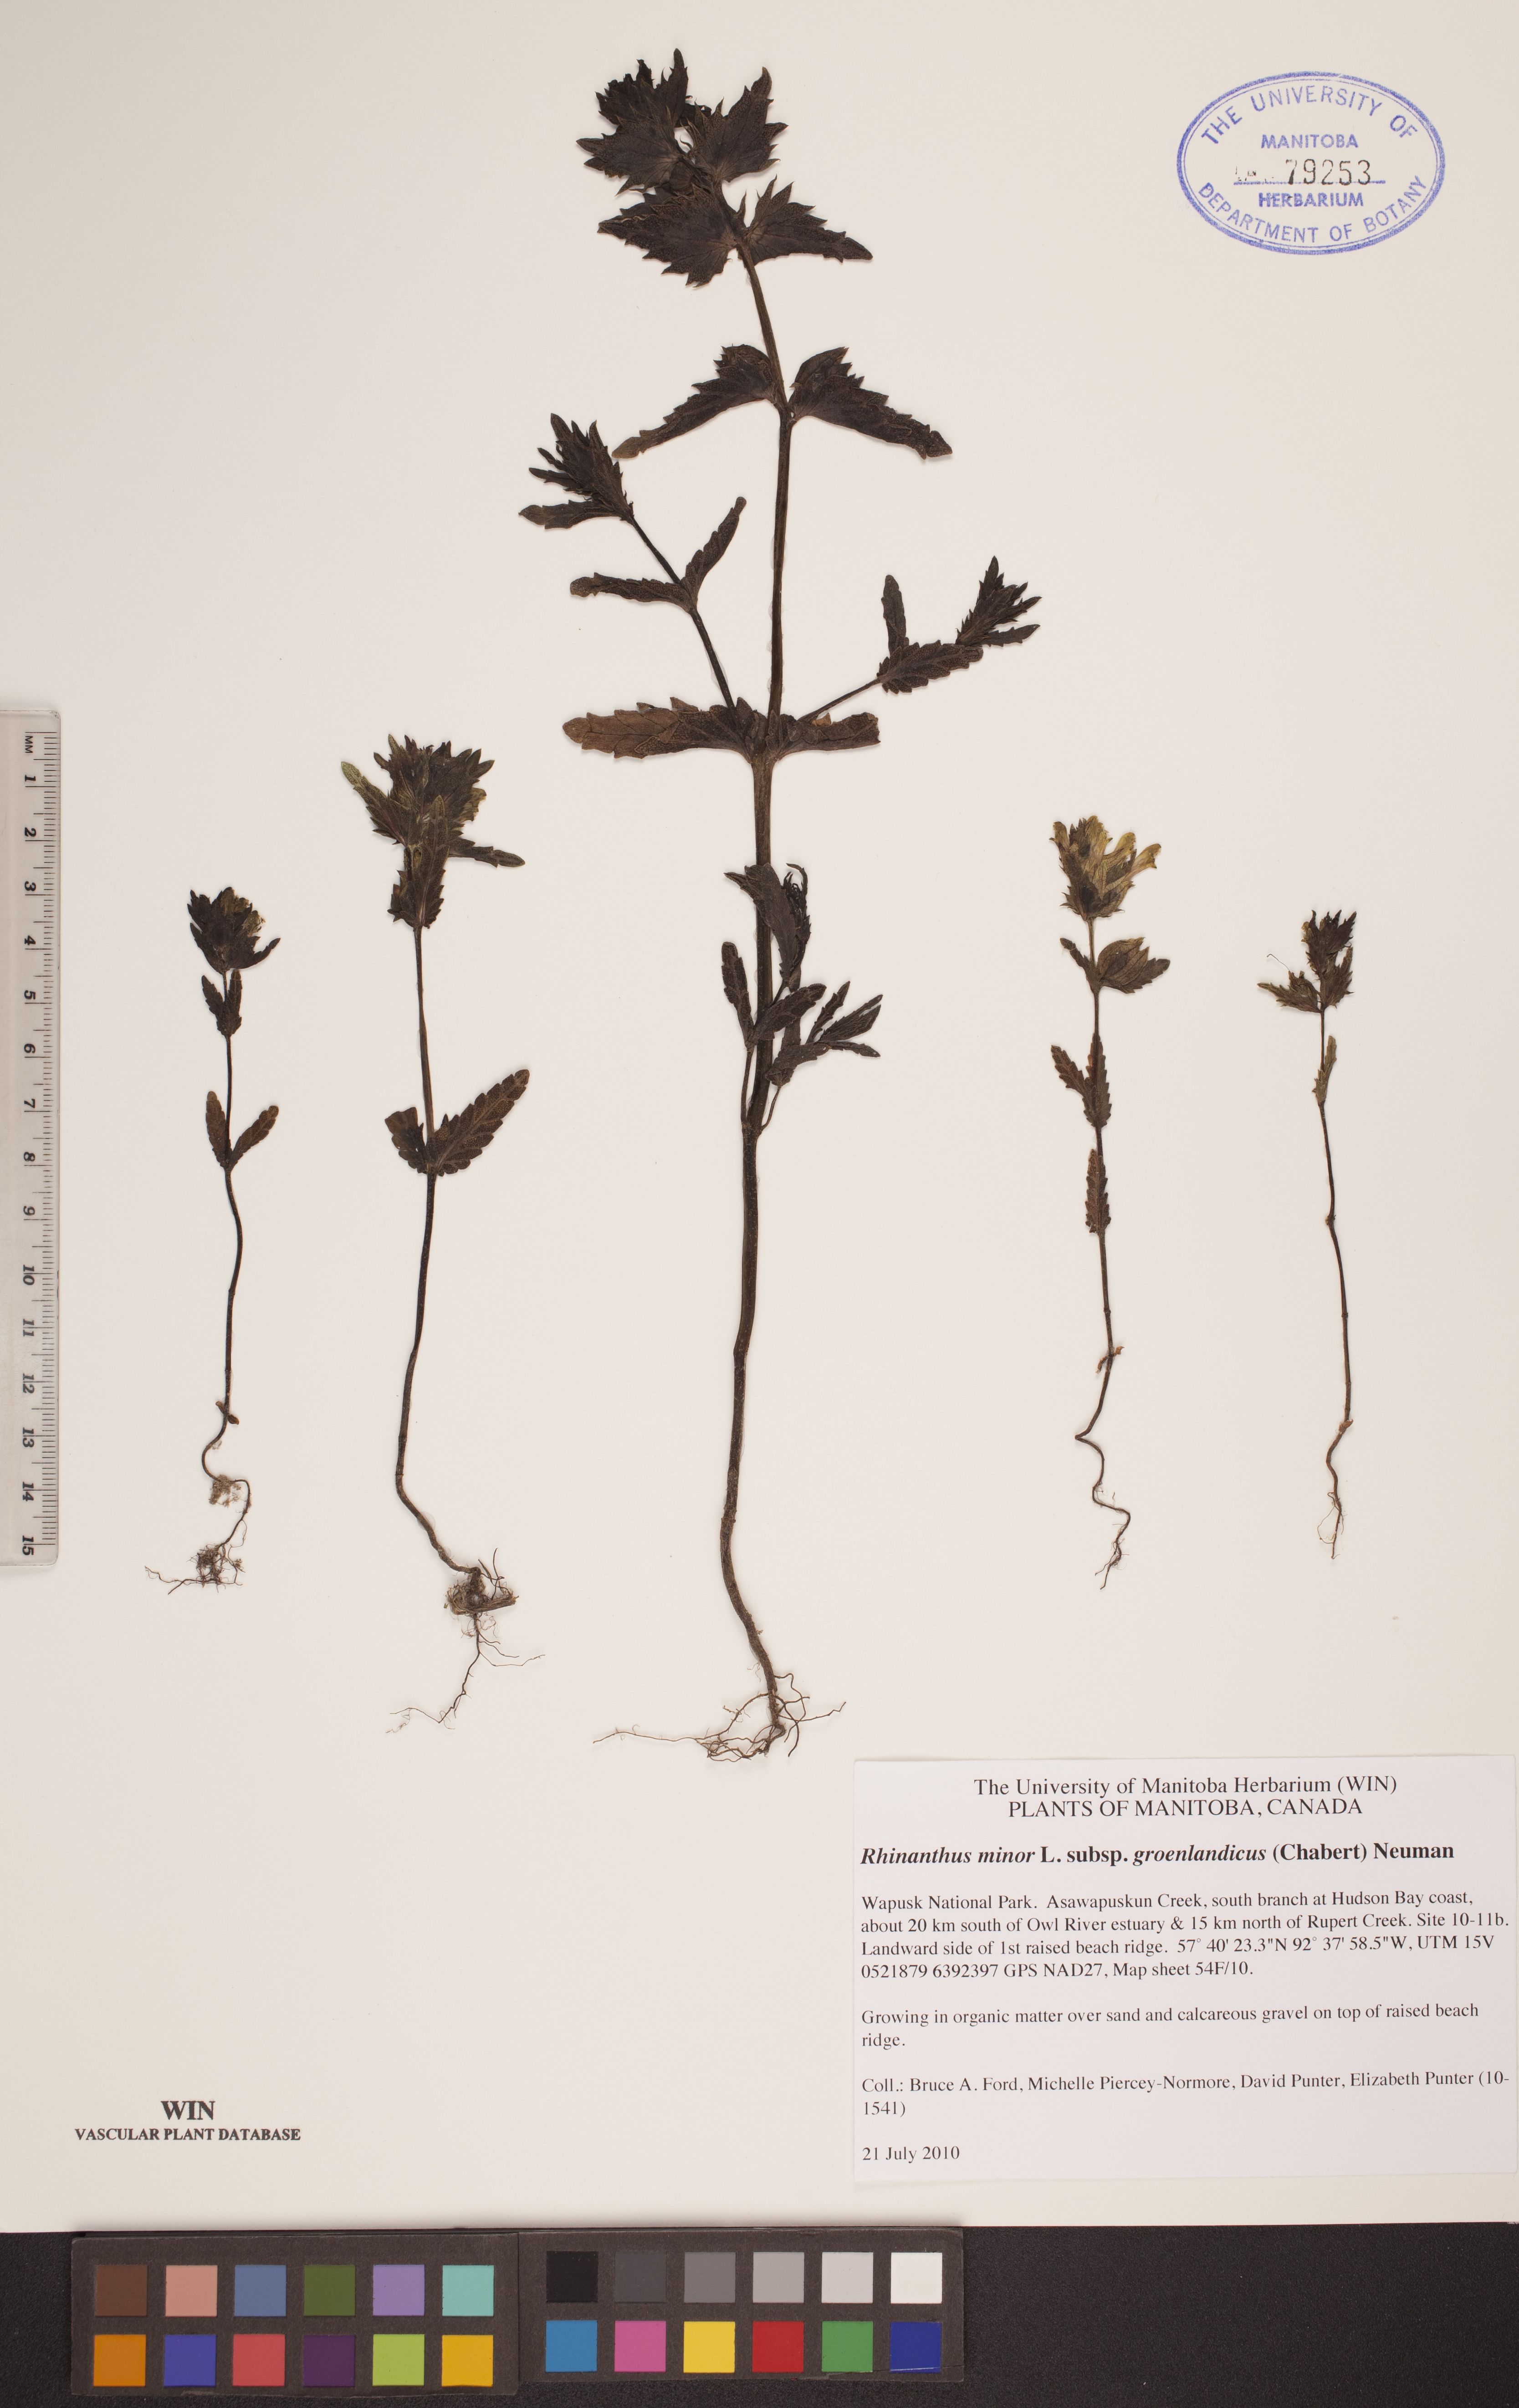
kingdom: Plantae
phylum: Tracheophyta
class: Magnoliopsida
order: Lamiales
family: Orobanchaceae
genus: Rhinanthus
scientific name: Rhinanthus groenlandicus
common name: Little yellow rattle
